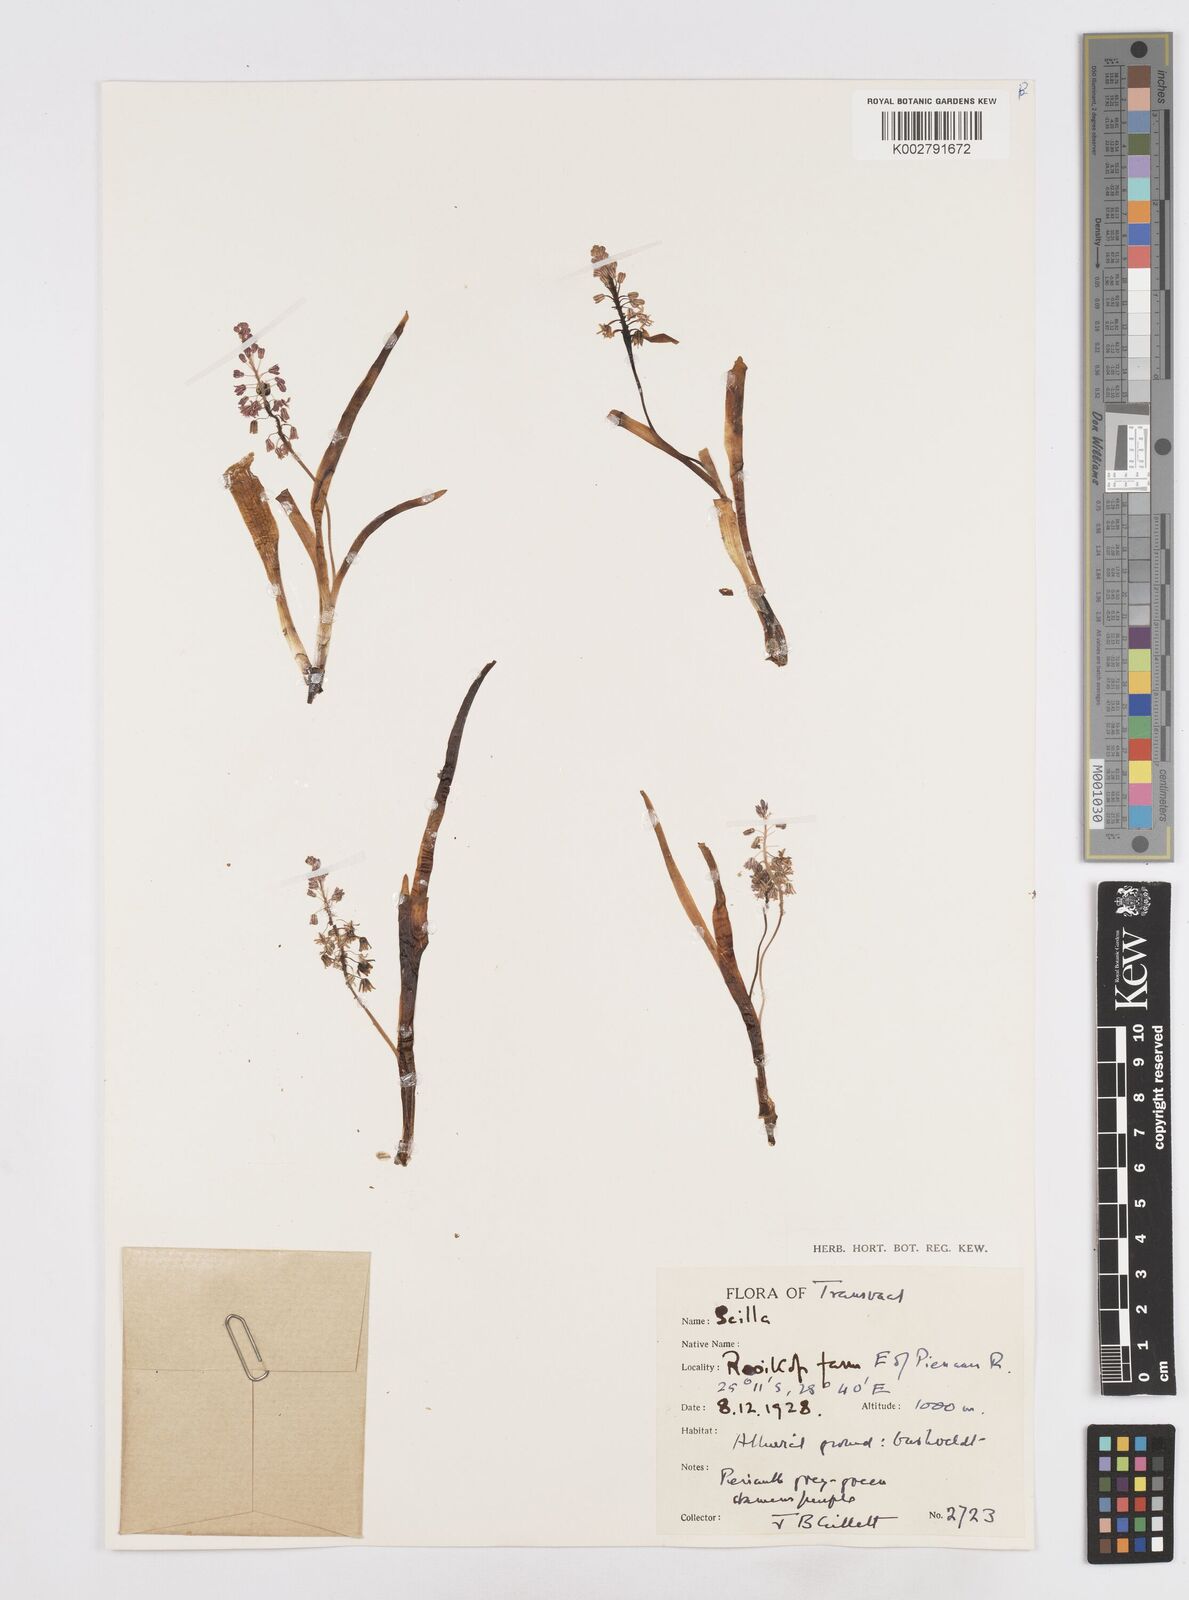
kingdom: Plantae
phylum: Tracheophyta
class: Liliopsida
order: Asparagales
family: Asparagaceae
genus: Scilla
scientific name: Scilla
